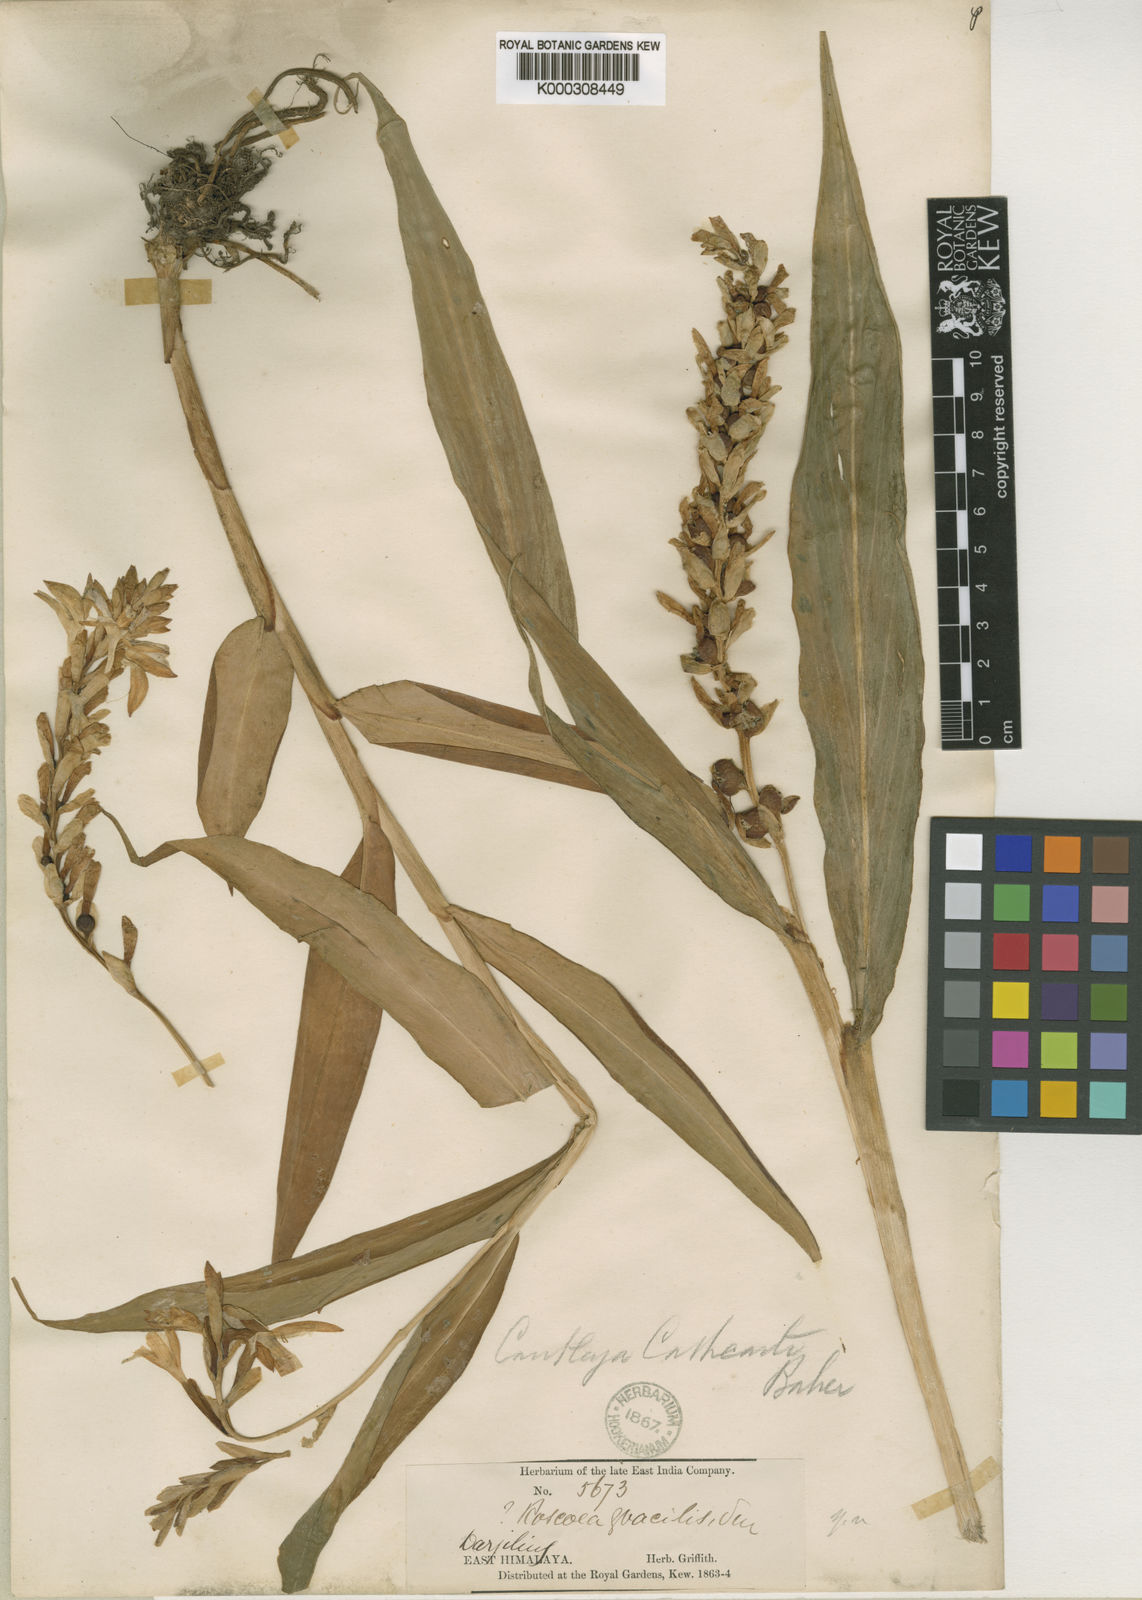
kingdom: Plantae
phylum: Tracheophyta
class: Liliopsida
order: Zingiberales
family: Zingiberaceae
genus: Cautleya
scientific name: Cautleya gracilis
